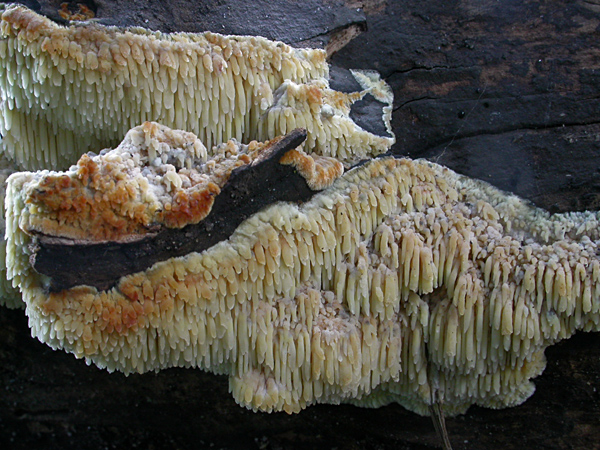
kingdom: Fungi
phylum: Basidiomycota
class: Agaricomycetes
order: Polyporales
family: Meruliaceae
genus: Sarcodontia
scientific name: Sarcodontia setosa
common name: æblepig
